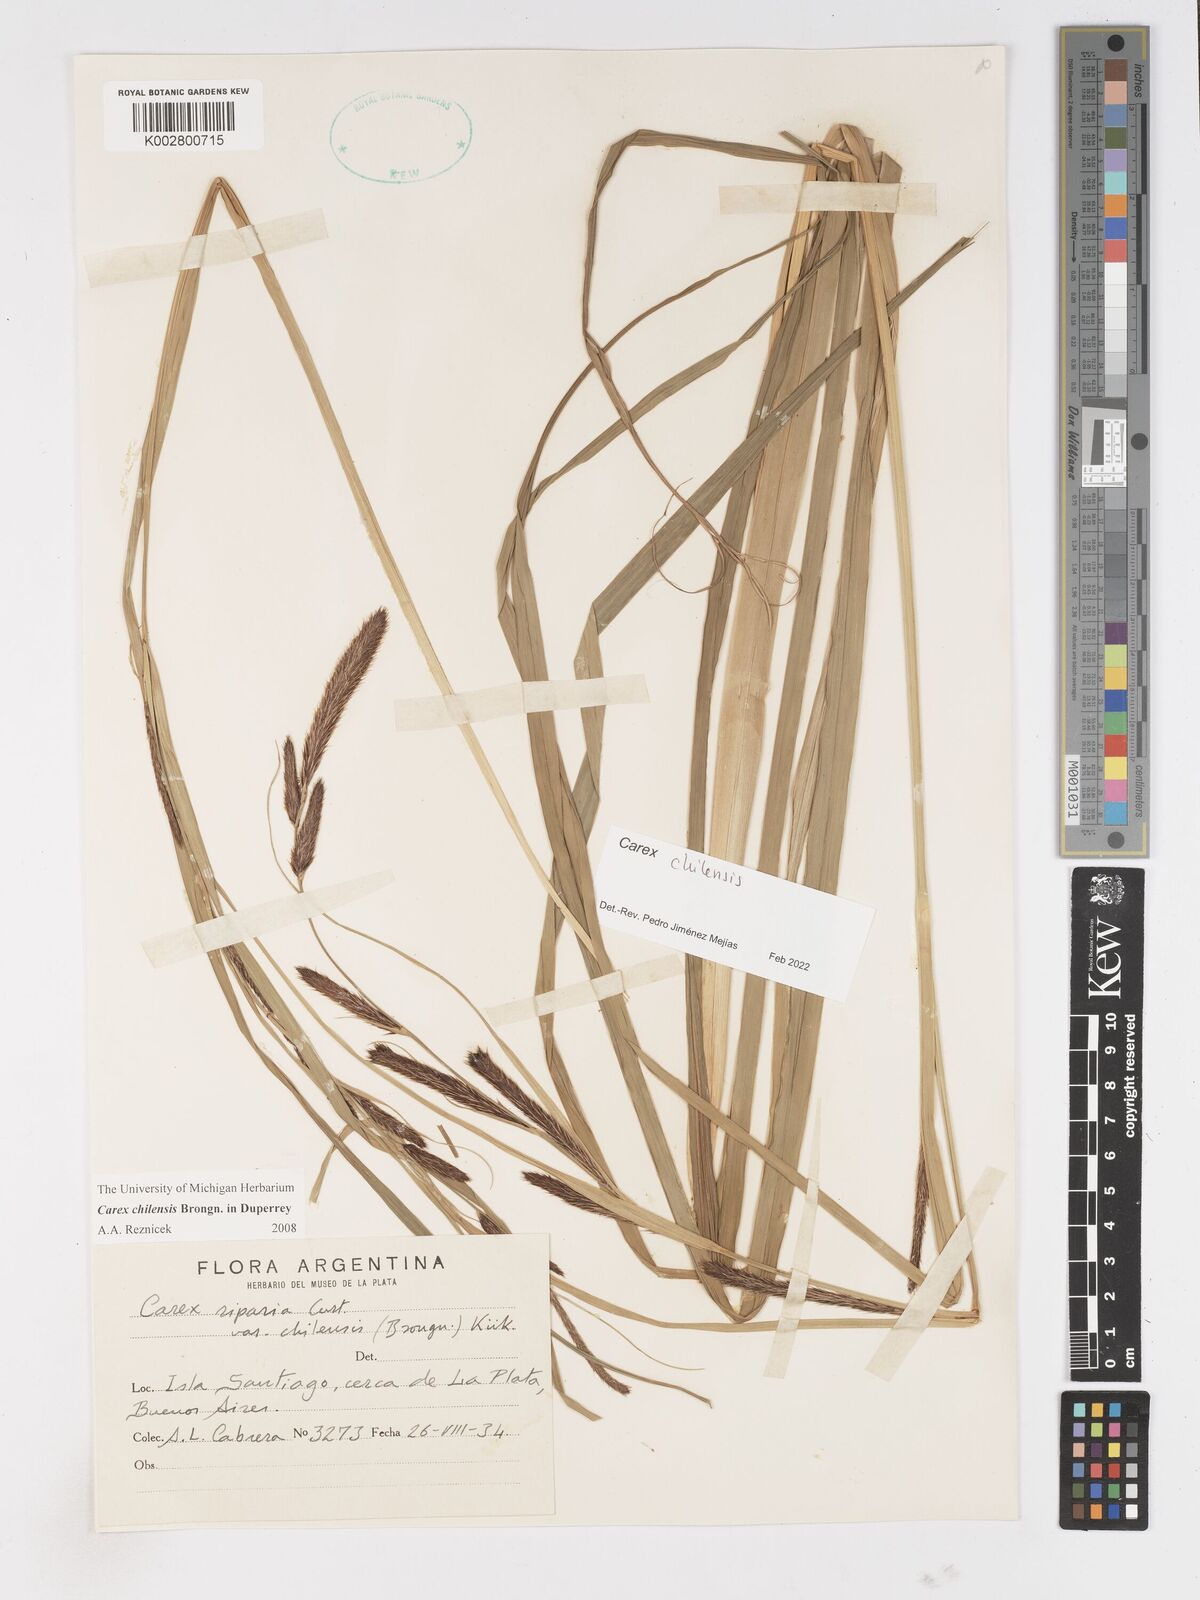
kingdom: Plantae
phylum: Tracheophyta
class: Liliopsida
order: Poales
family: Cyperaceae
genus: Carex
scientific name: Carex chilensis
